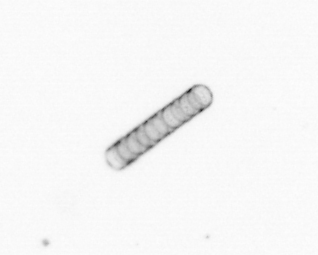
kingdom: Chromista
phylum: Ochrophyta
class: Bacillariophyceae
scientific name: Bacillariophyceae
